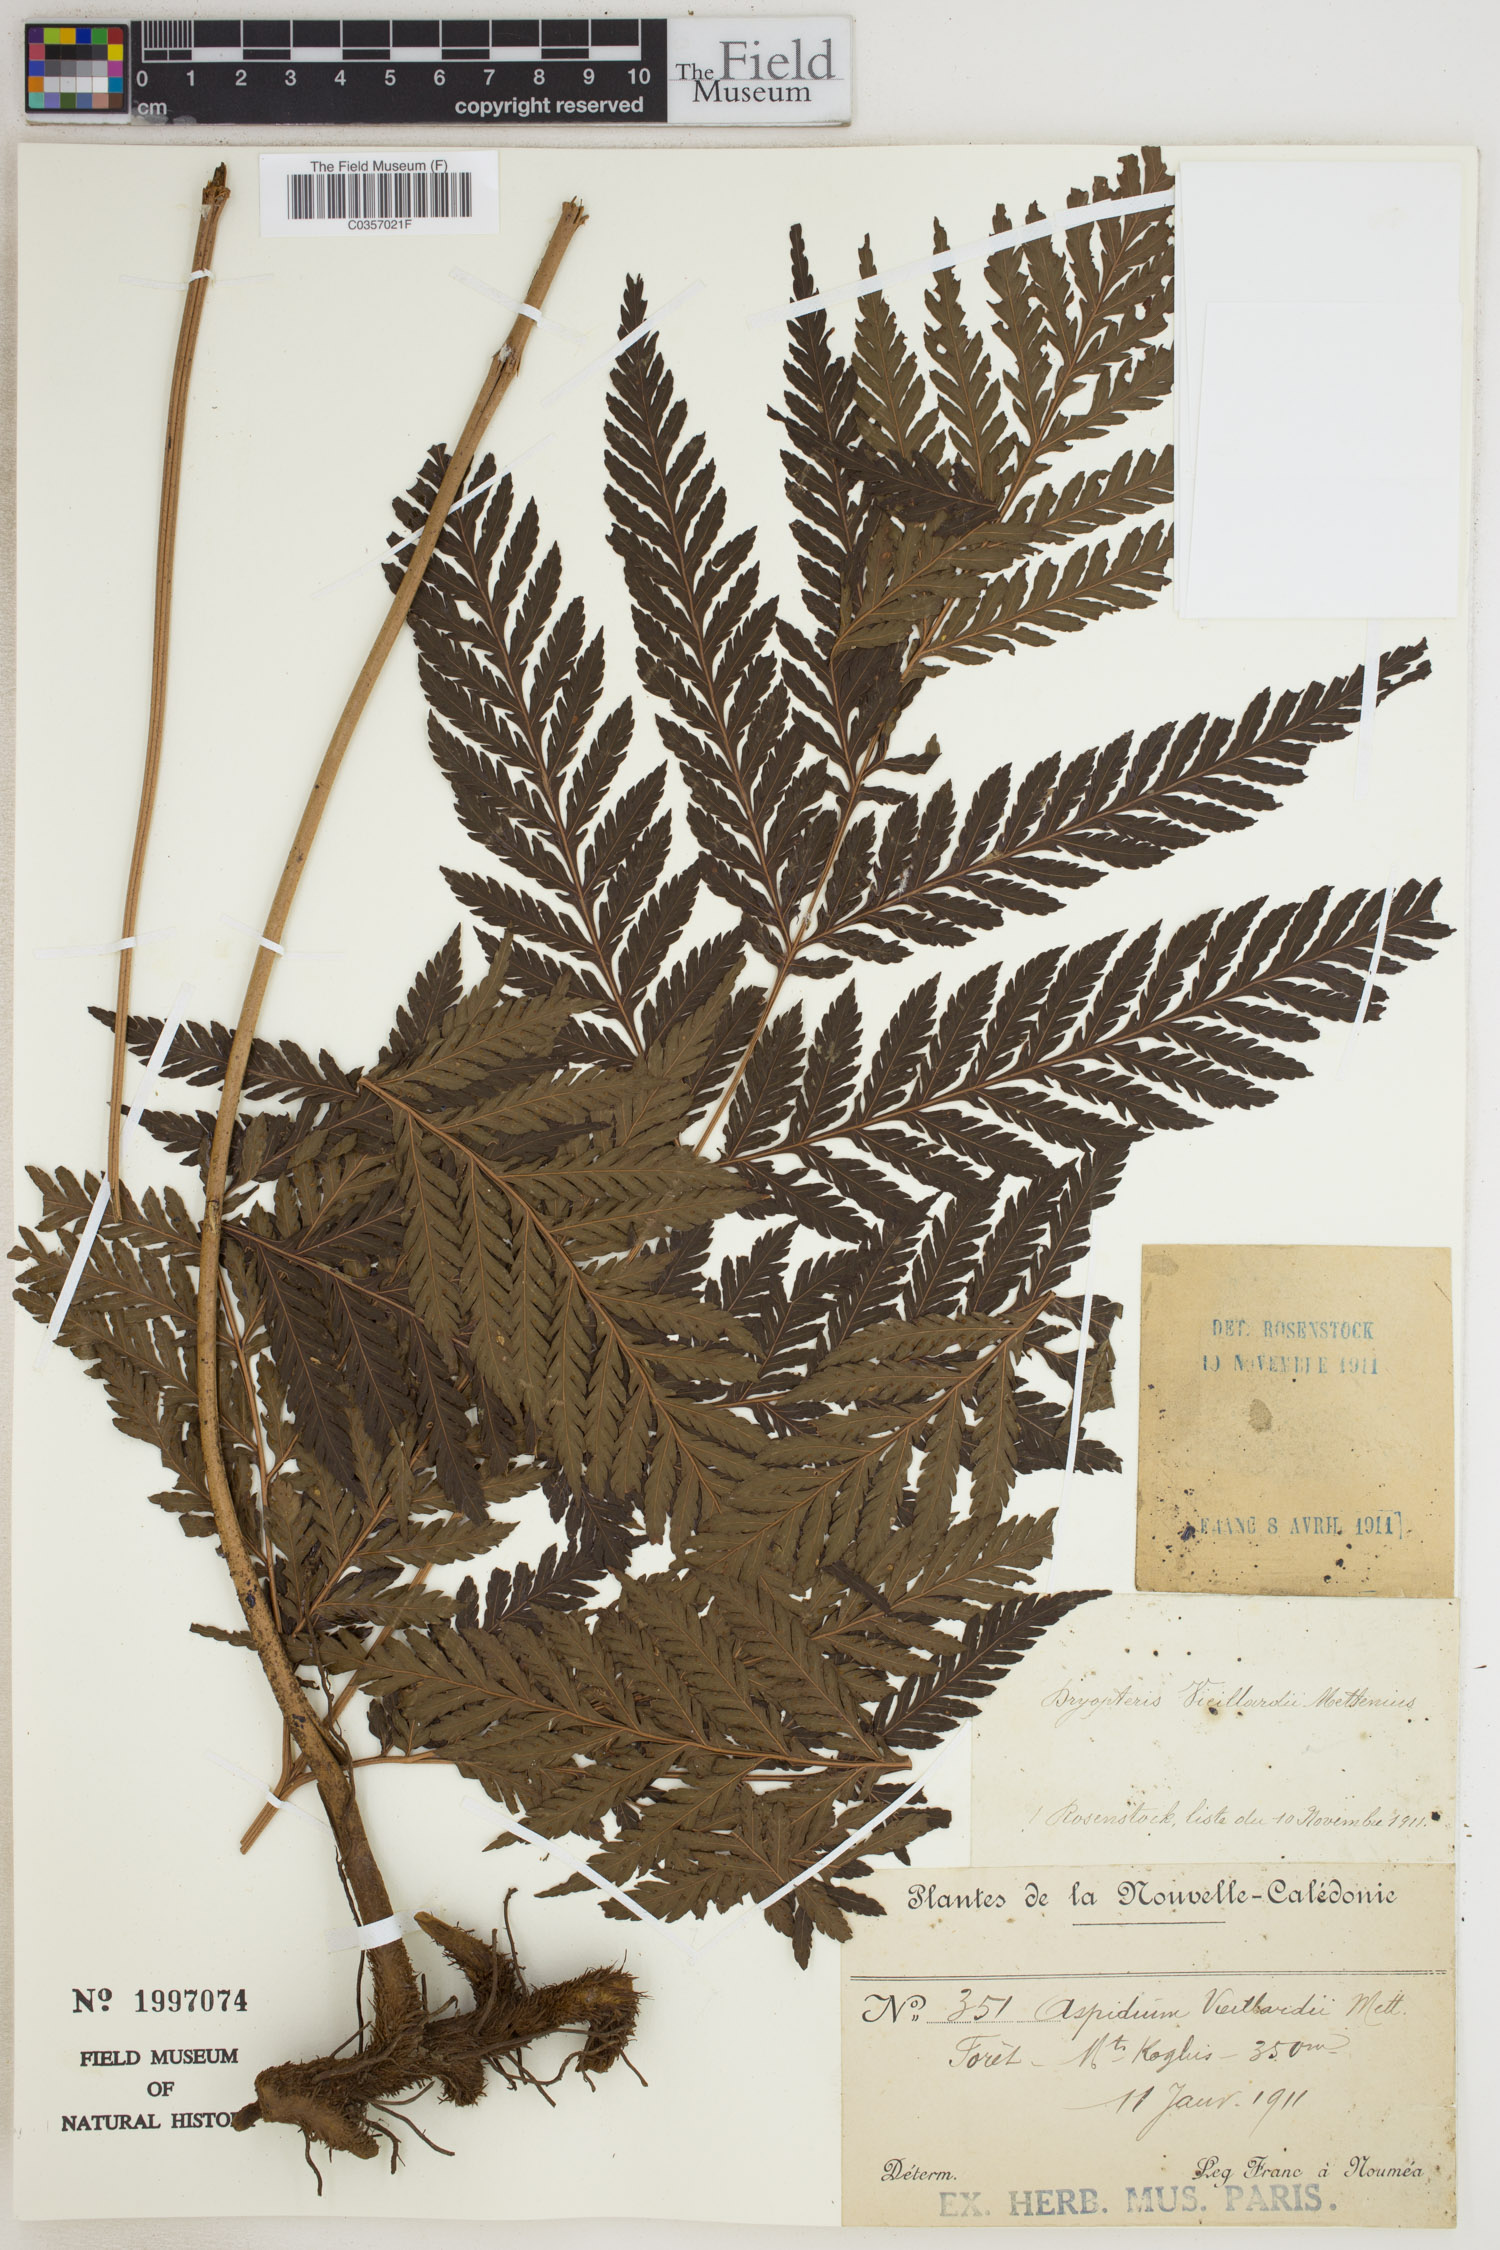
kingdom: Plantae
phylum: Tracheophyta
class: Polypodiopsida
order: Polypodiales
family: Dryopteridaceae
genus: Lastreopsis
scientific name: Lastreopsis vieillardii
